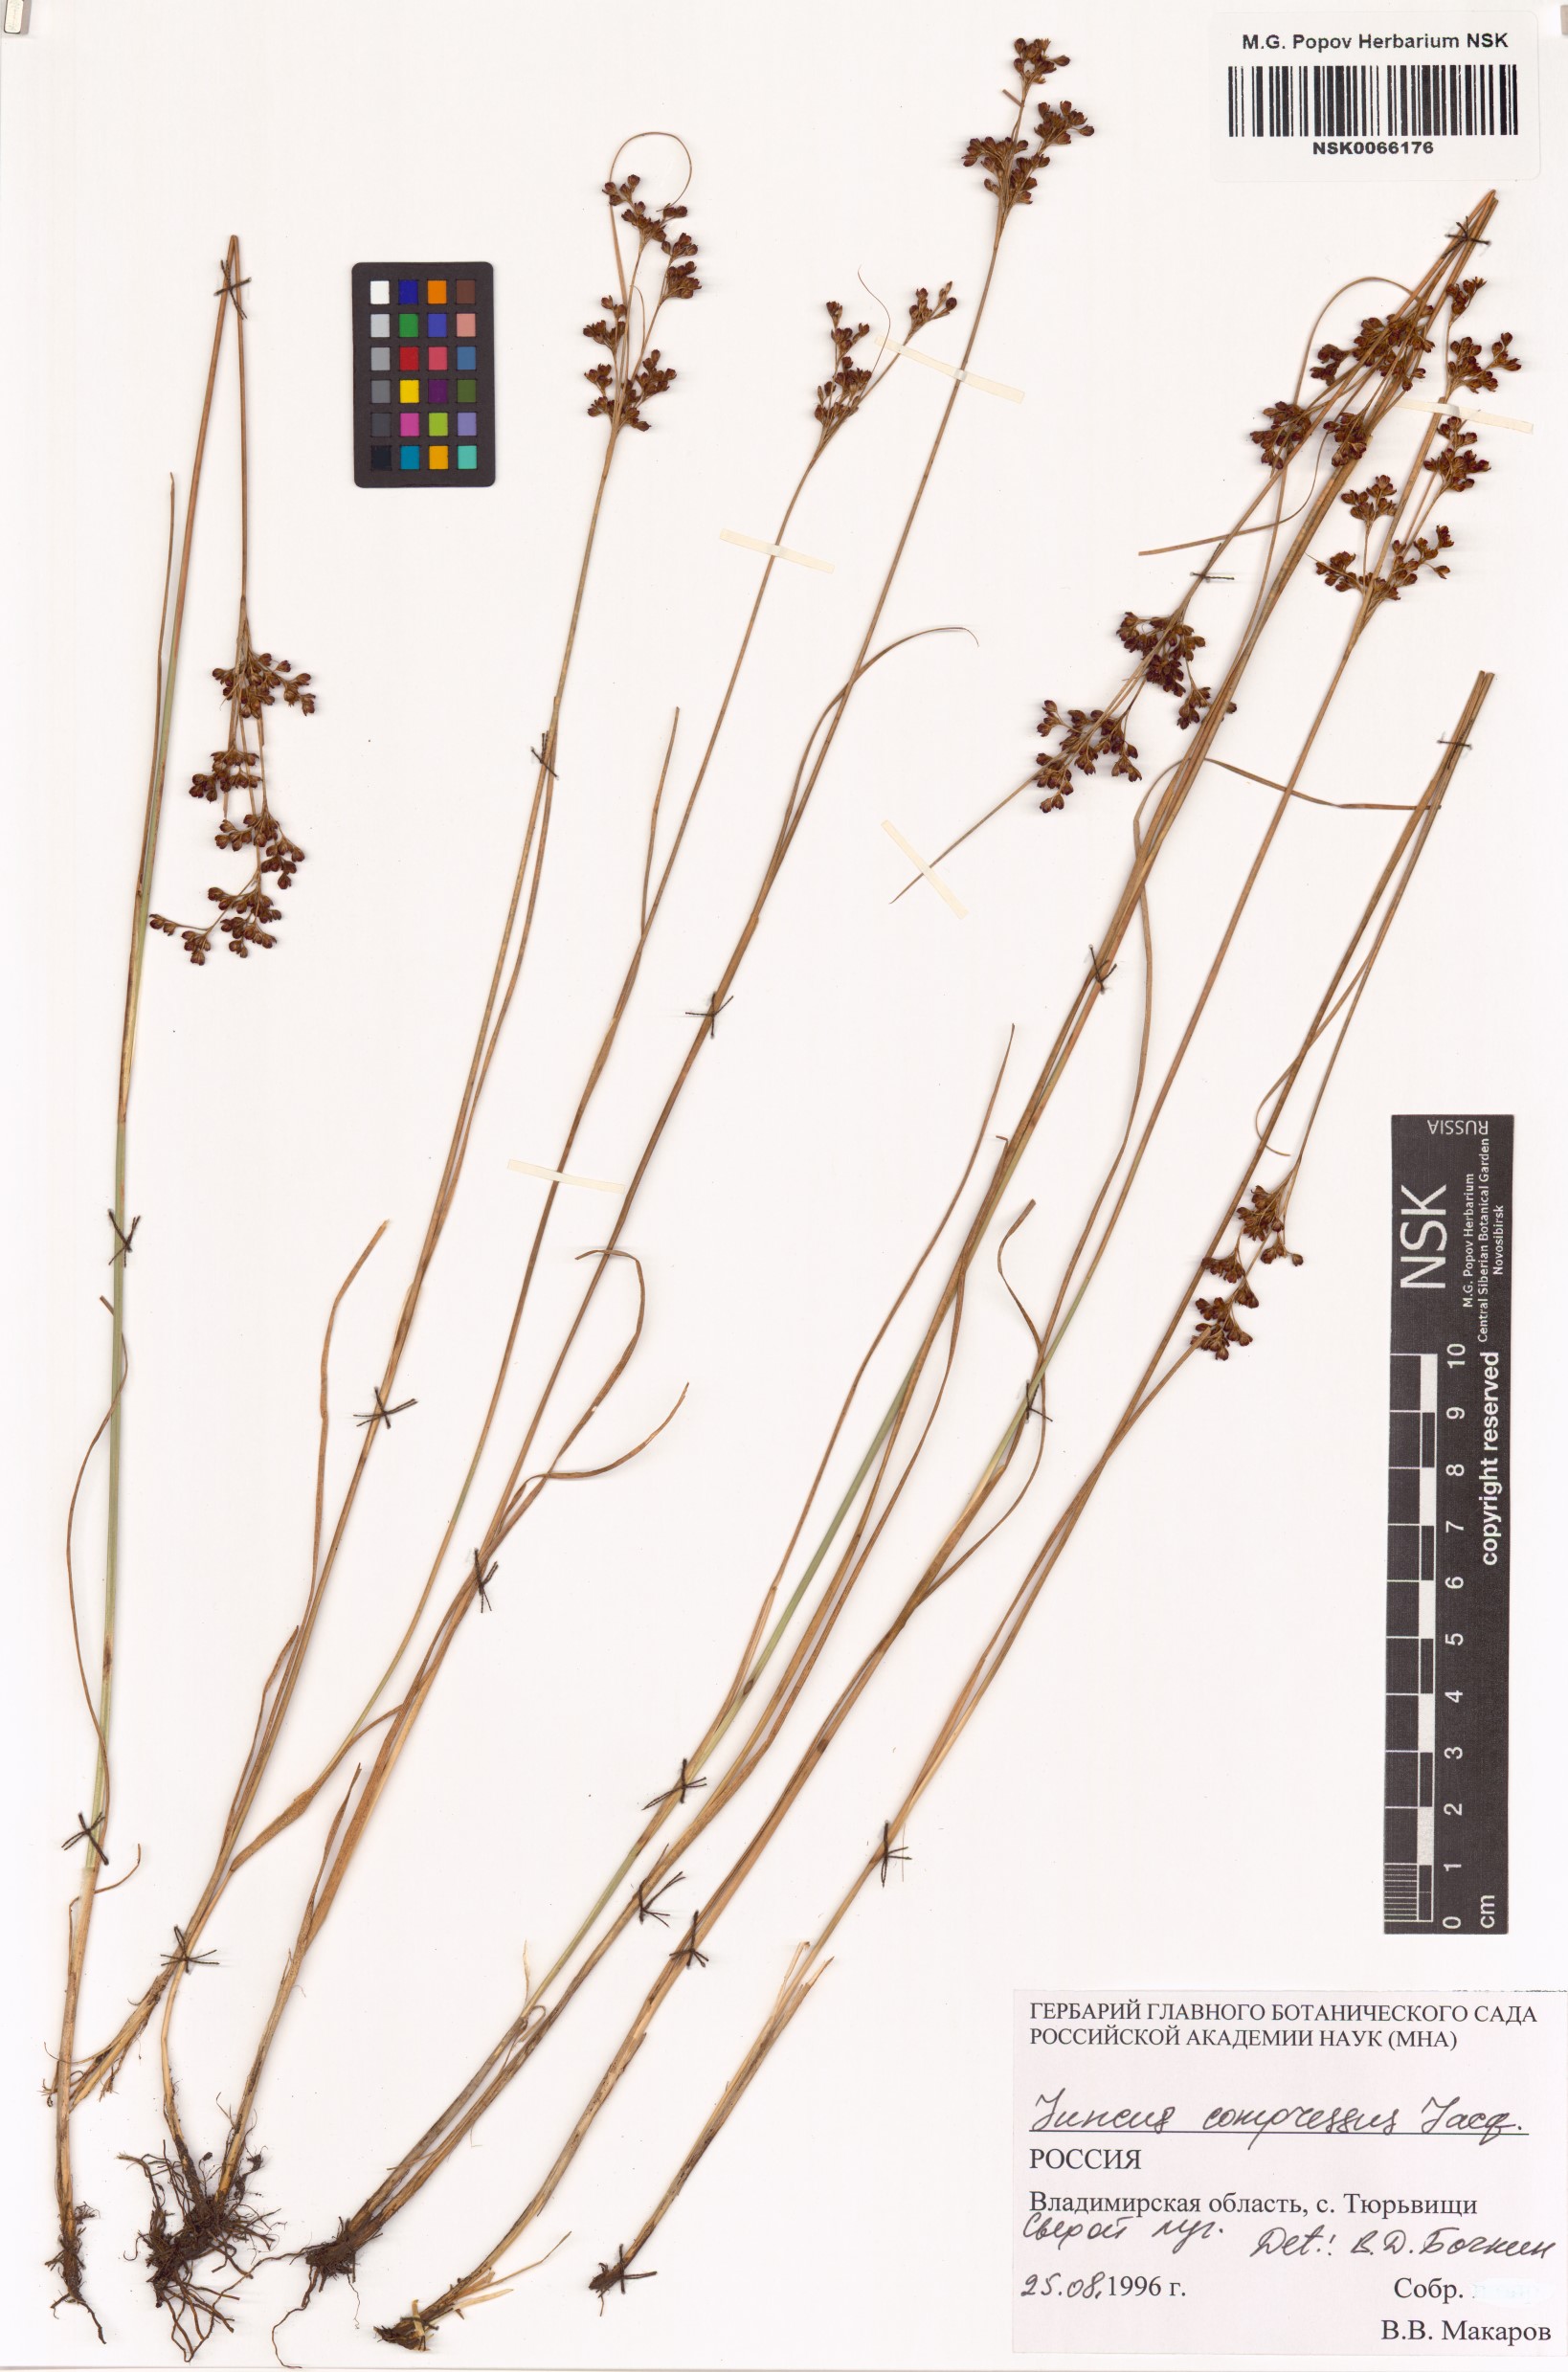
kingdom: Plantae
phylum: Tracheophyta
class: Liliopsida
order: Poales
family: Juncaceae
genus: Juncus
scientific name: Juncus compressus
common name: Round-fruited rush
